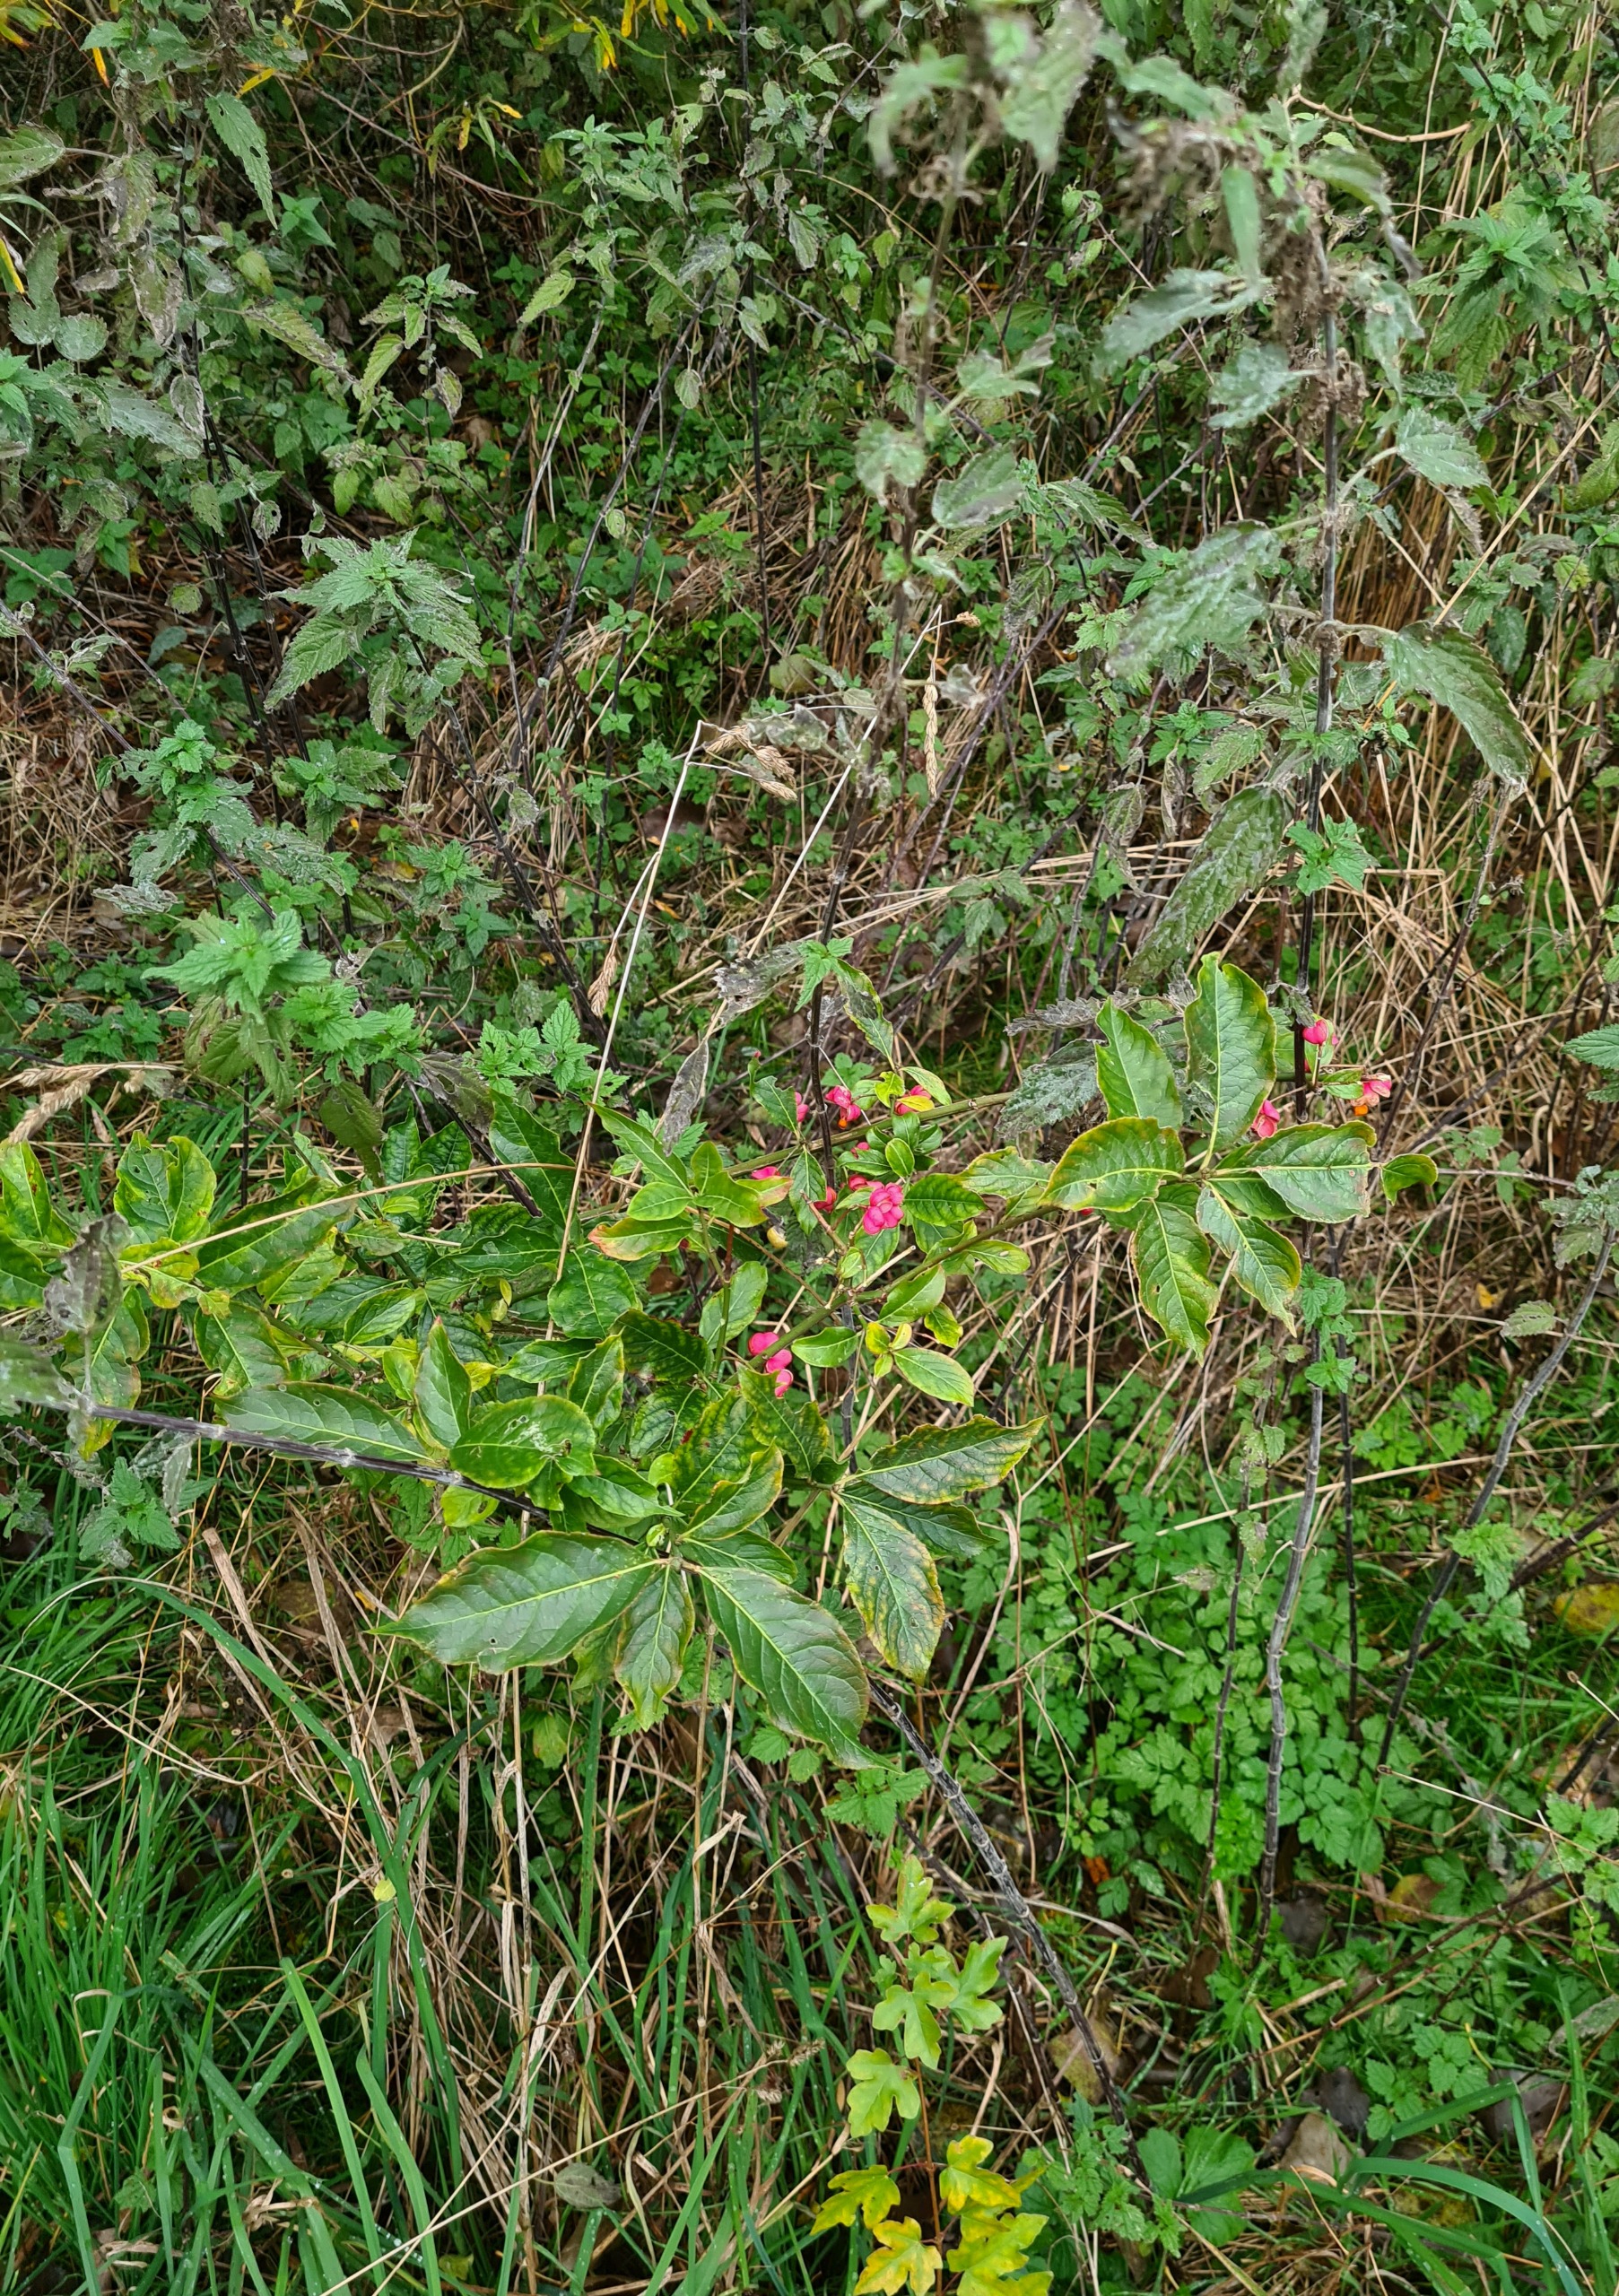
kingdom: Plantae
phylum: Tracheophyta
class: Magnoliopsida
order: Celastrales
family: Celastraceae
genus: Euonymus
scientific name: Euonymus europaeus
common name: Benved
